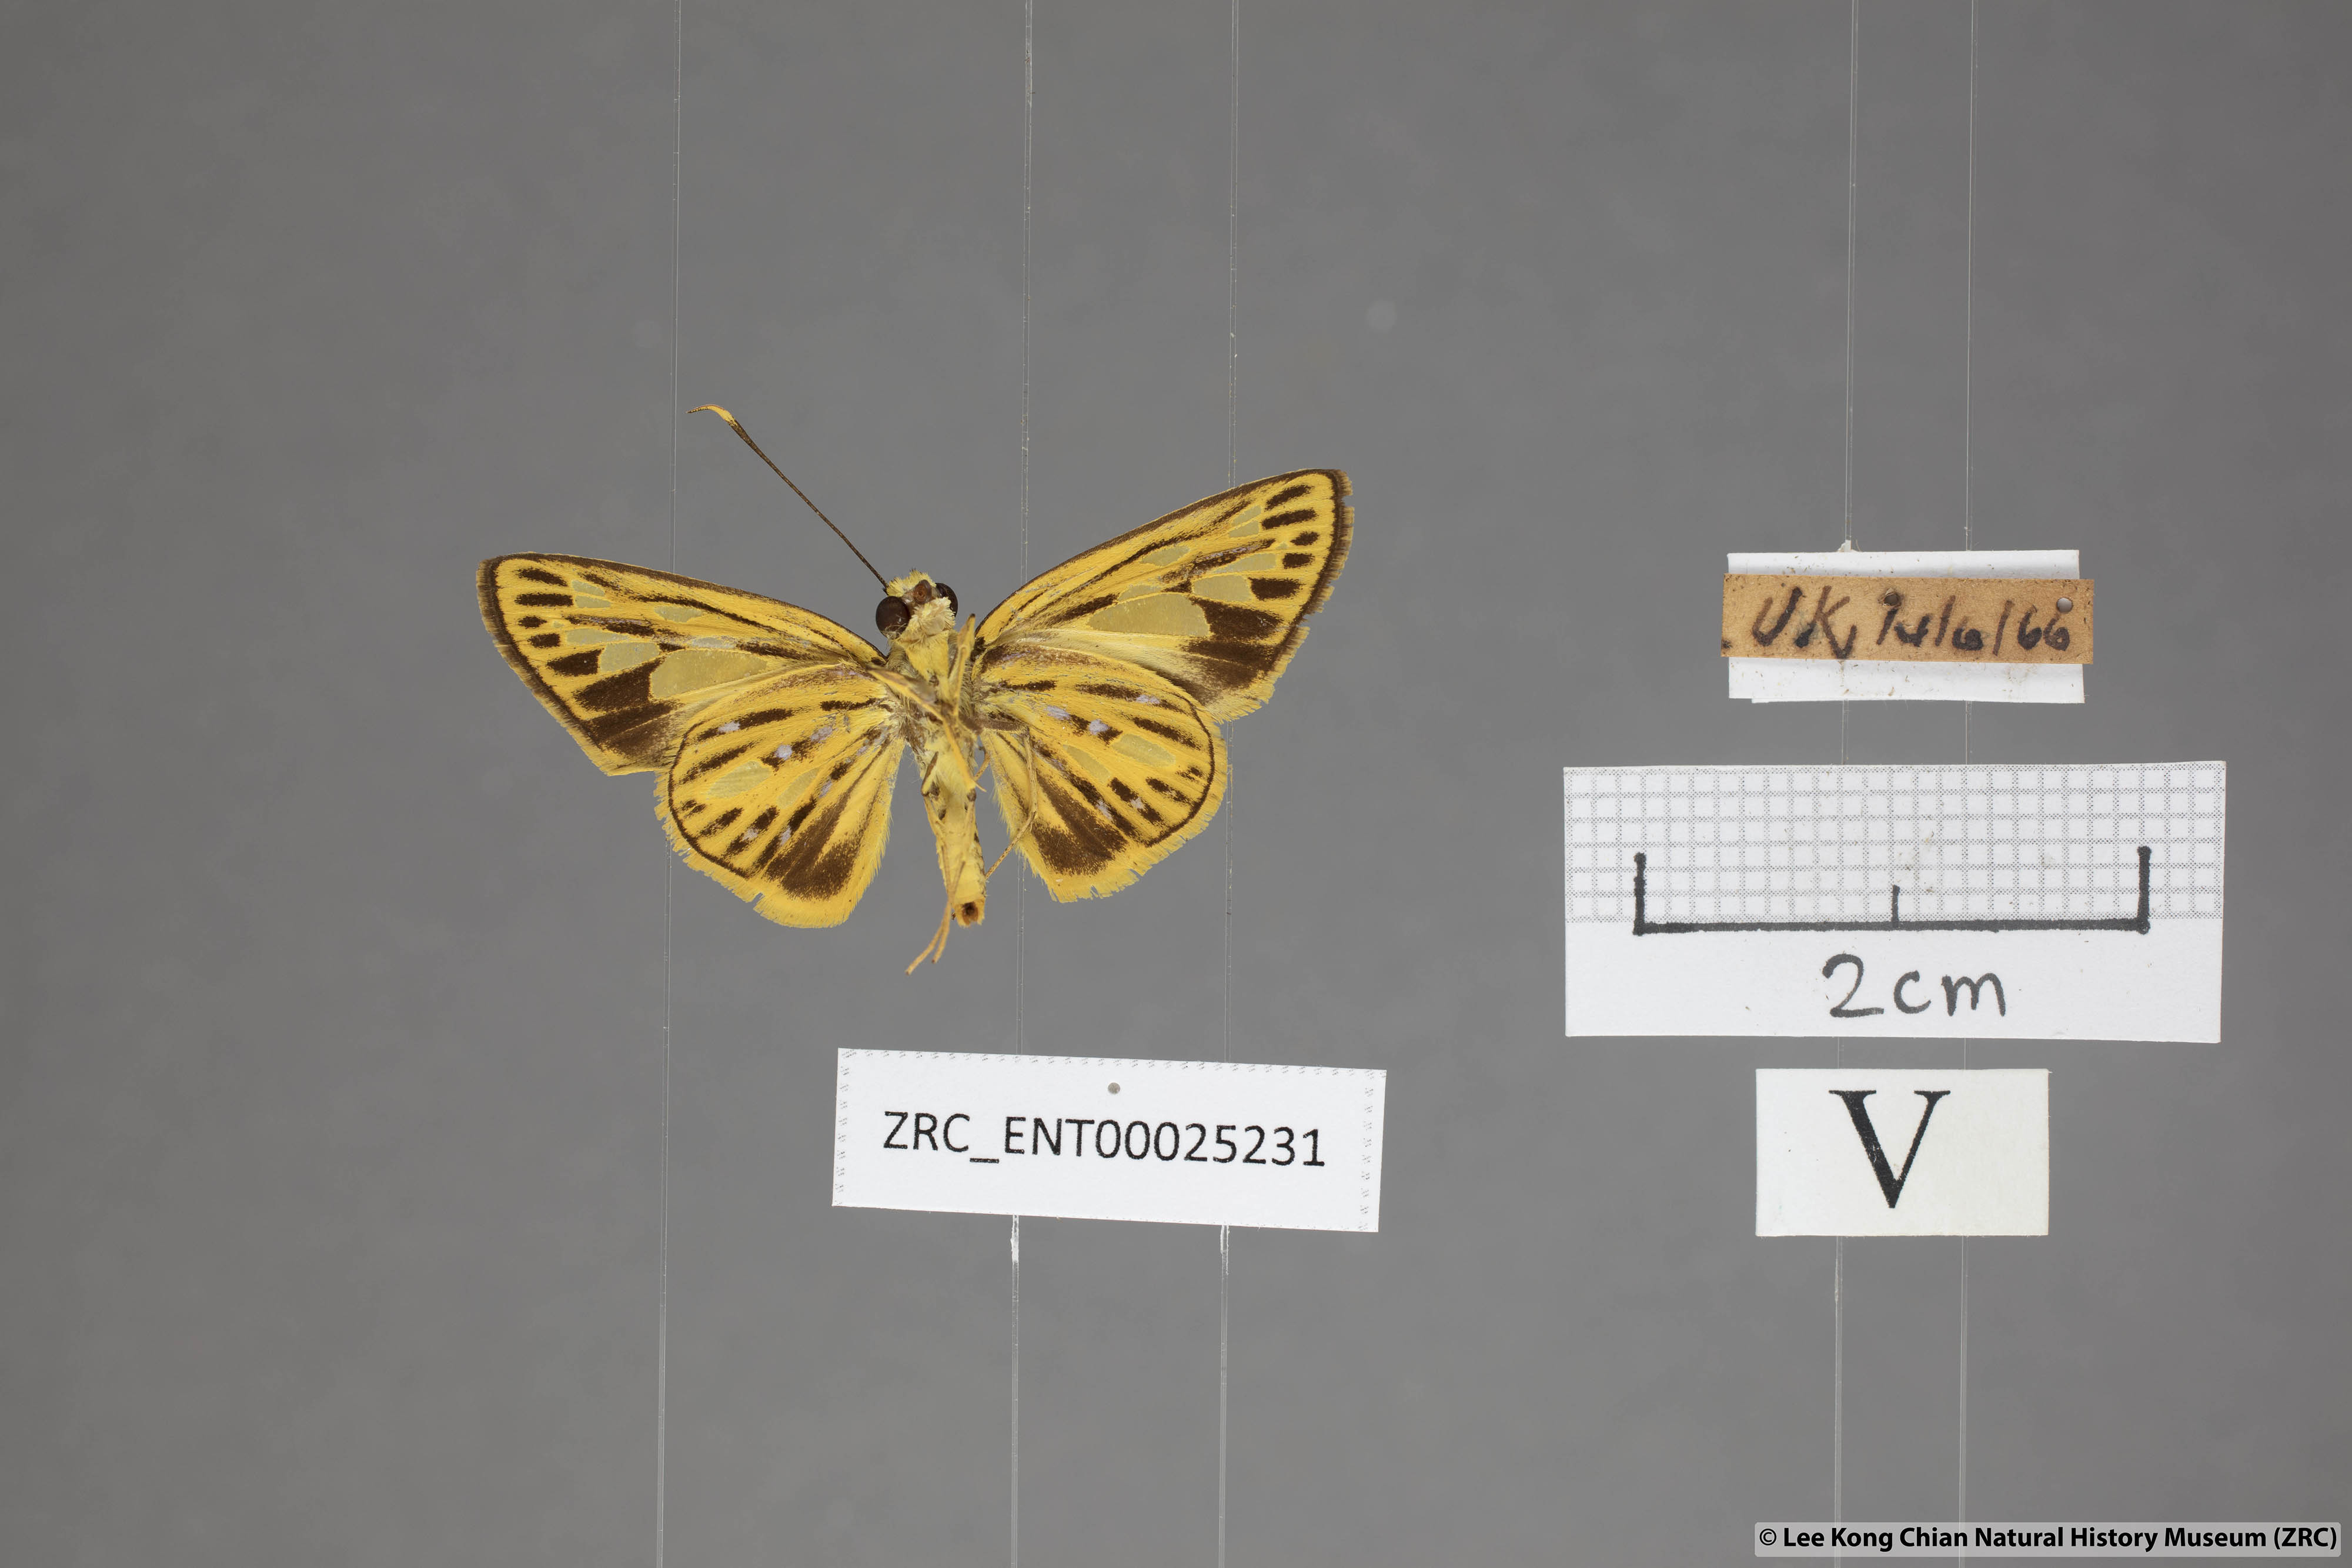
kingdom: Animalia
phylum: Arthropoda
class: Insecta
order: Lepidoptera
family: Hesperiidae
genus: Pyroneura
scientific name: Pyroneura flavia
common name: Lesser lancer
